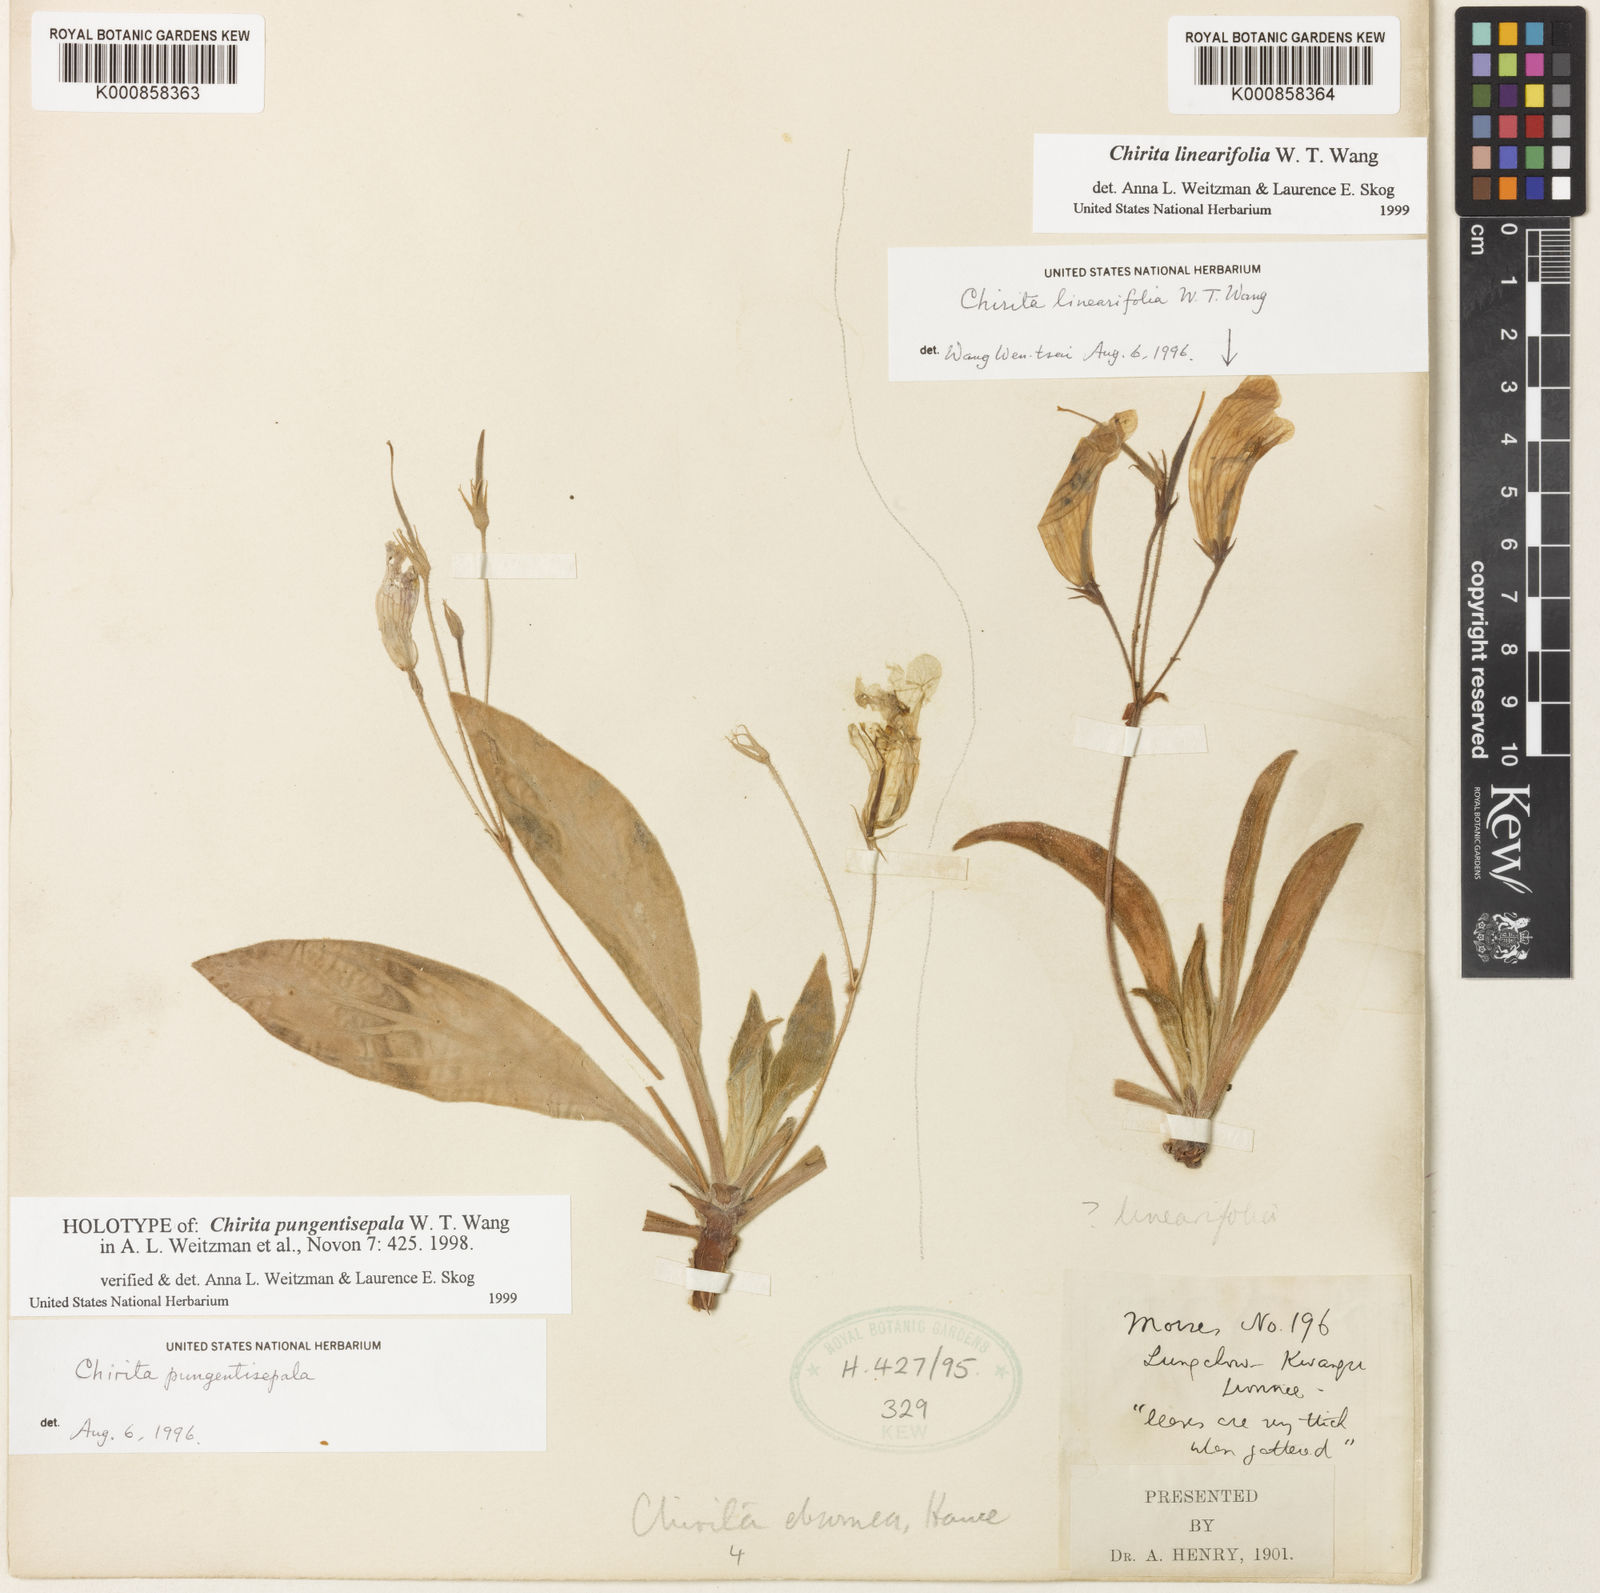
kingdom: Plantae
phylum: Tracheophyta
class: Magnoliopsida
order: Lamiales
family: Gesneriaceae
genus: Primulina
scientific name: Primulina pungentisepala
